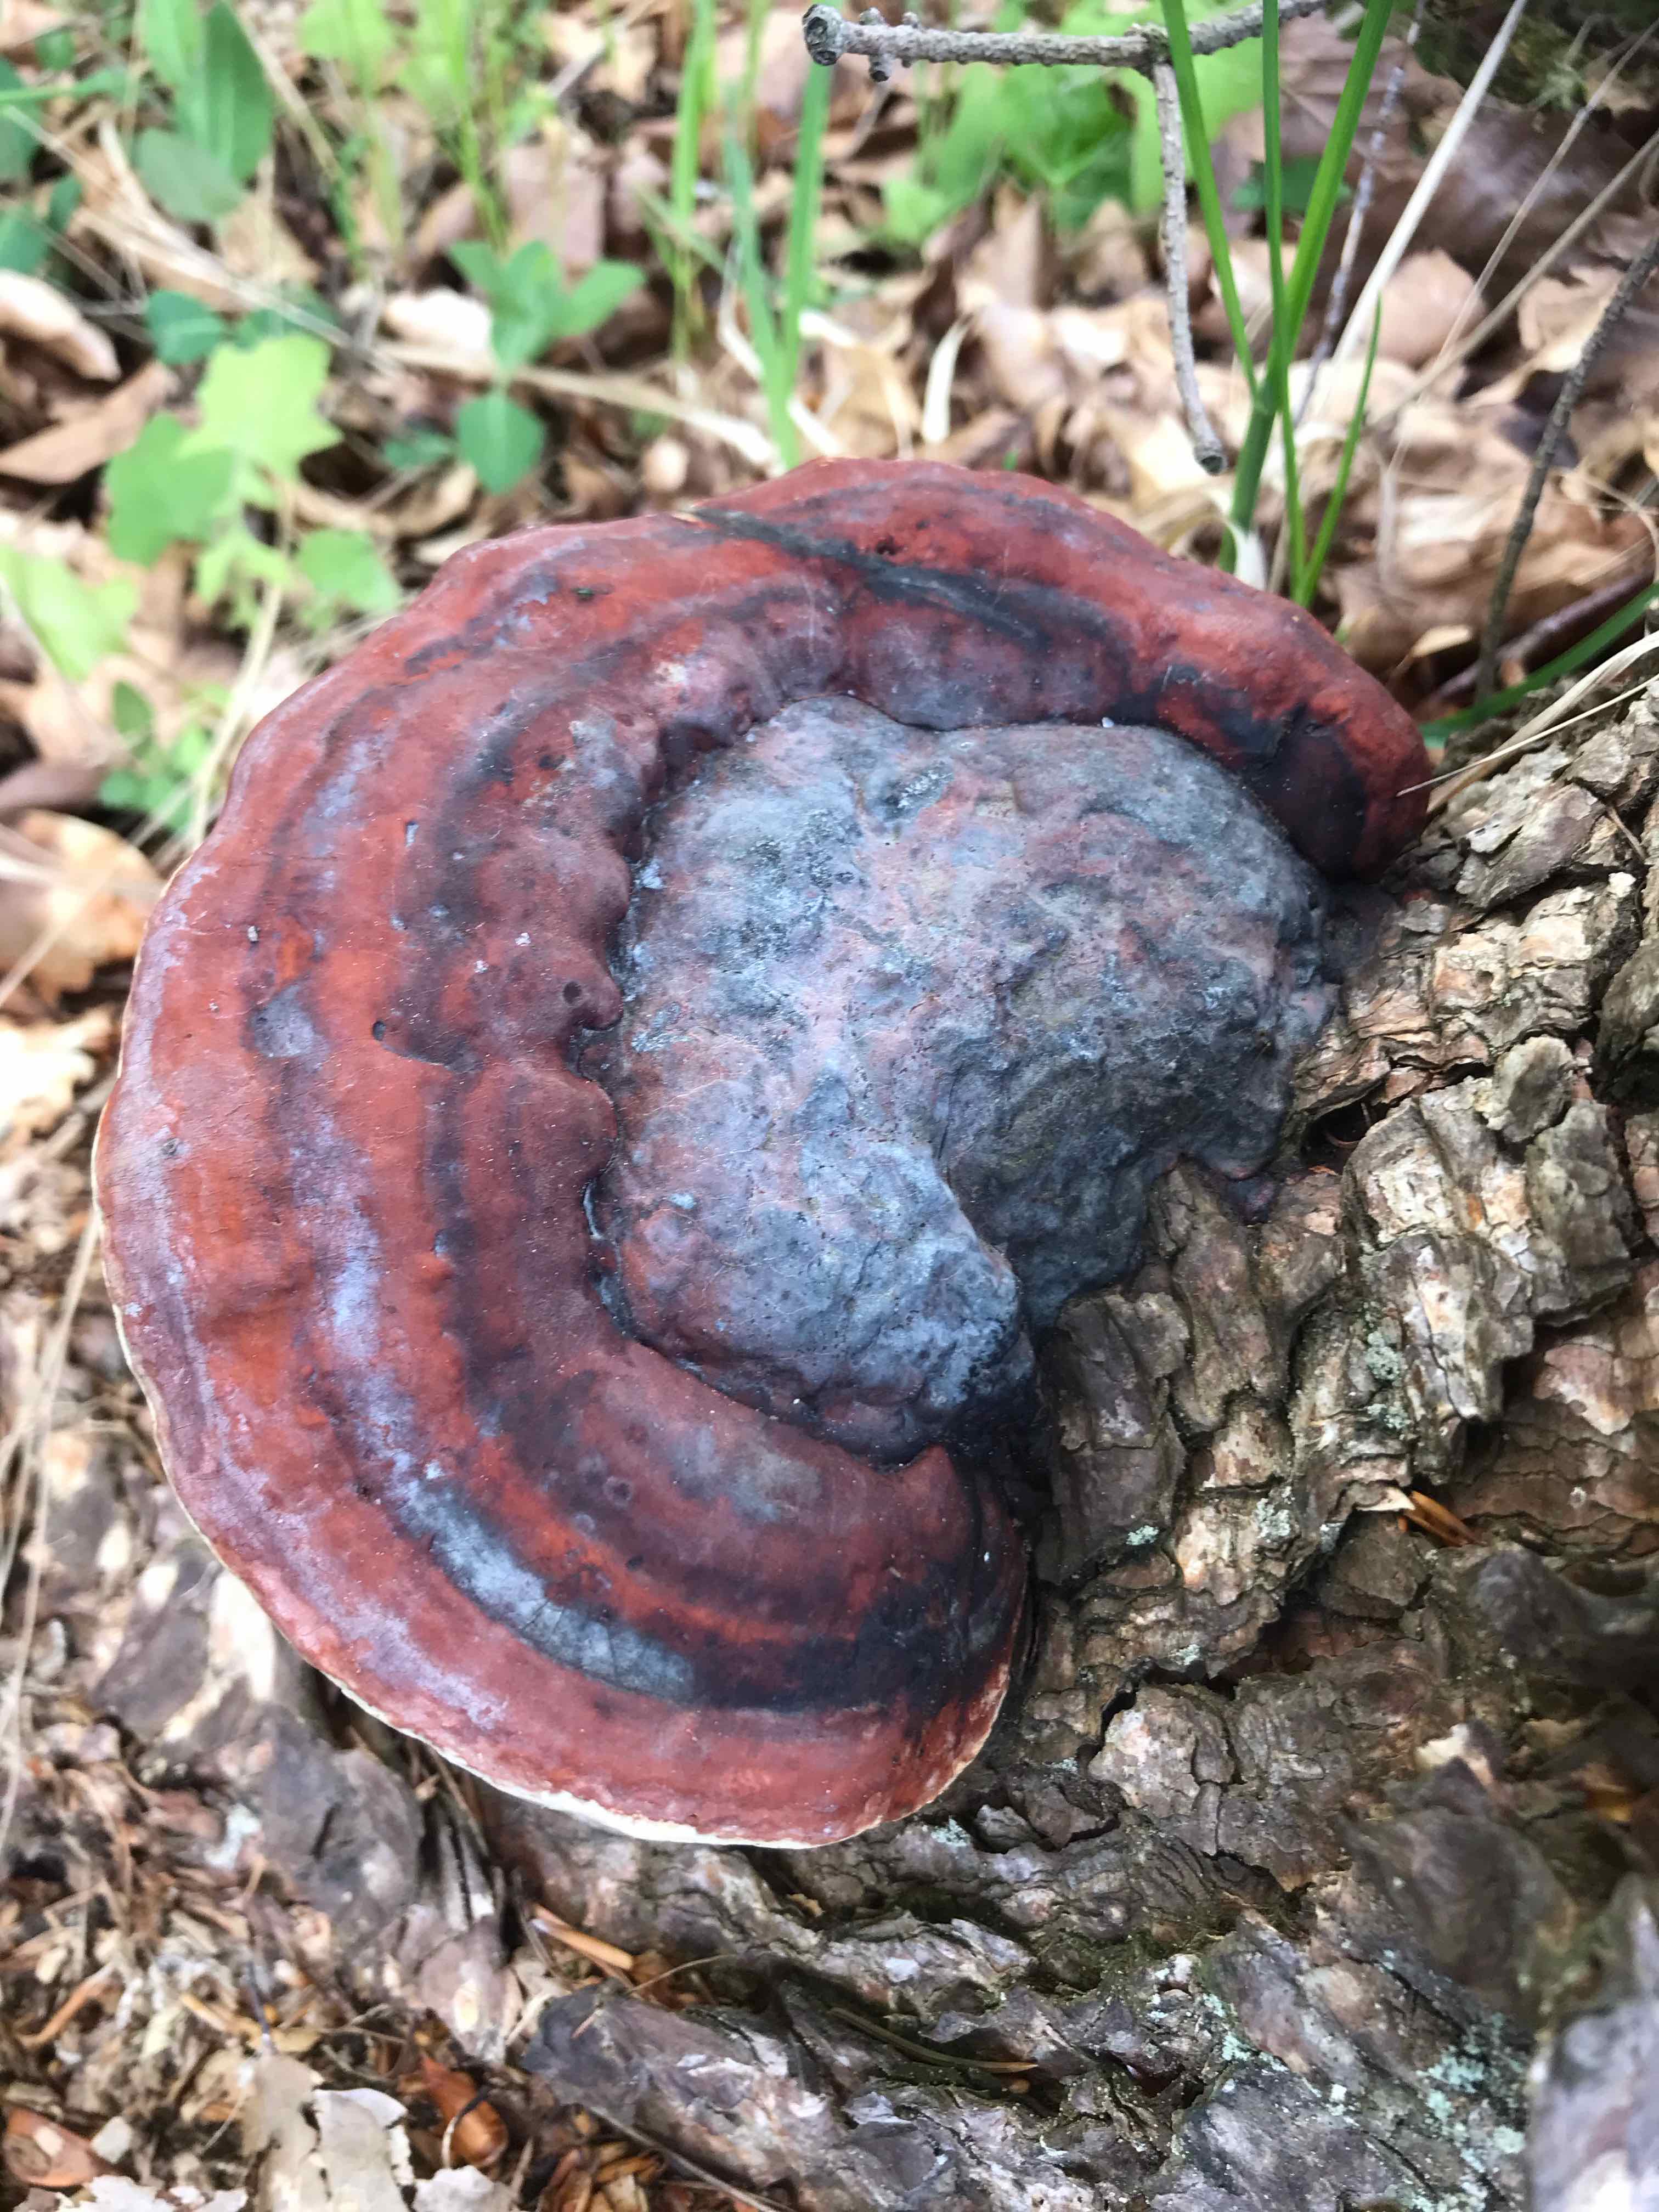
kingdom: Fungi
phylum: Basidiomycota
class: Agaricomycetes
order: Polyporales
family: Fomitopsidaceae
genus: Fomitopsis
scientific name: Fomitopsis pinicola
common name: randbæltet hovporesvamp
